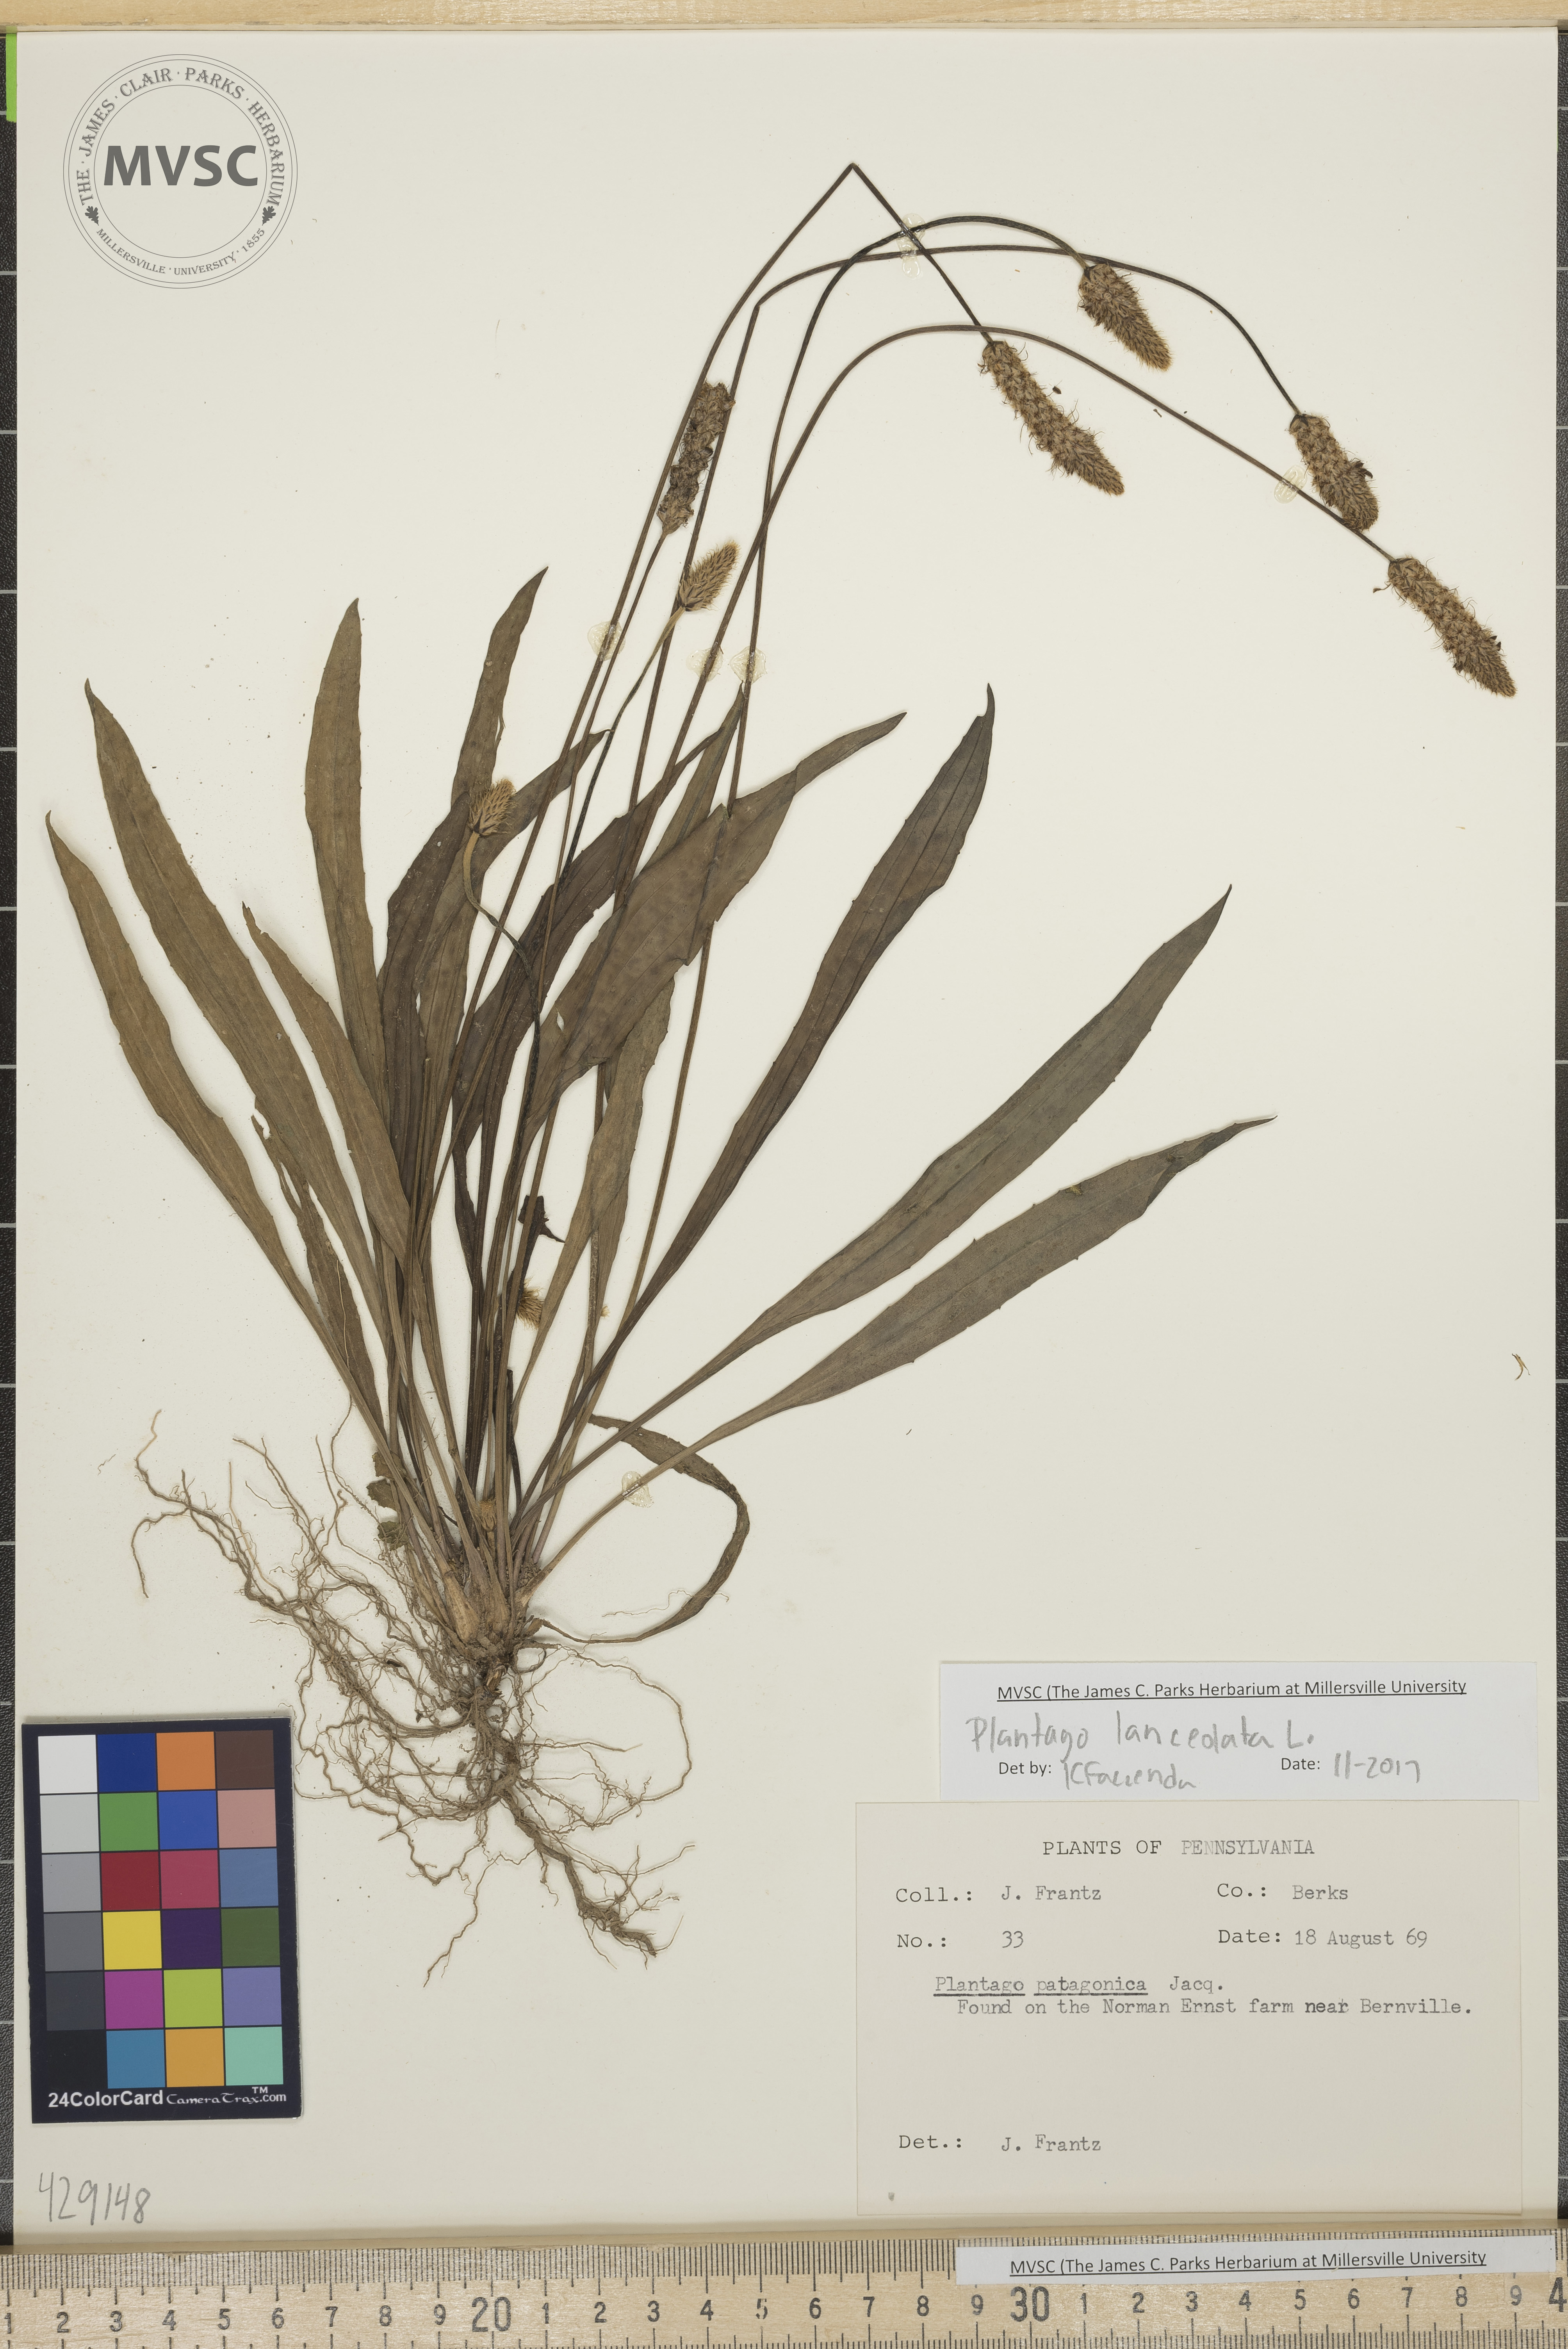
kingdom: Plantae
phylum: Tracheophyta
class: Magnoliopsida
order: Lamiales
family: Plantaginaceae
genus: Plantago
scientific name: Plantago lanceolata
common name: Ribwort plantain
